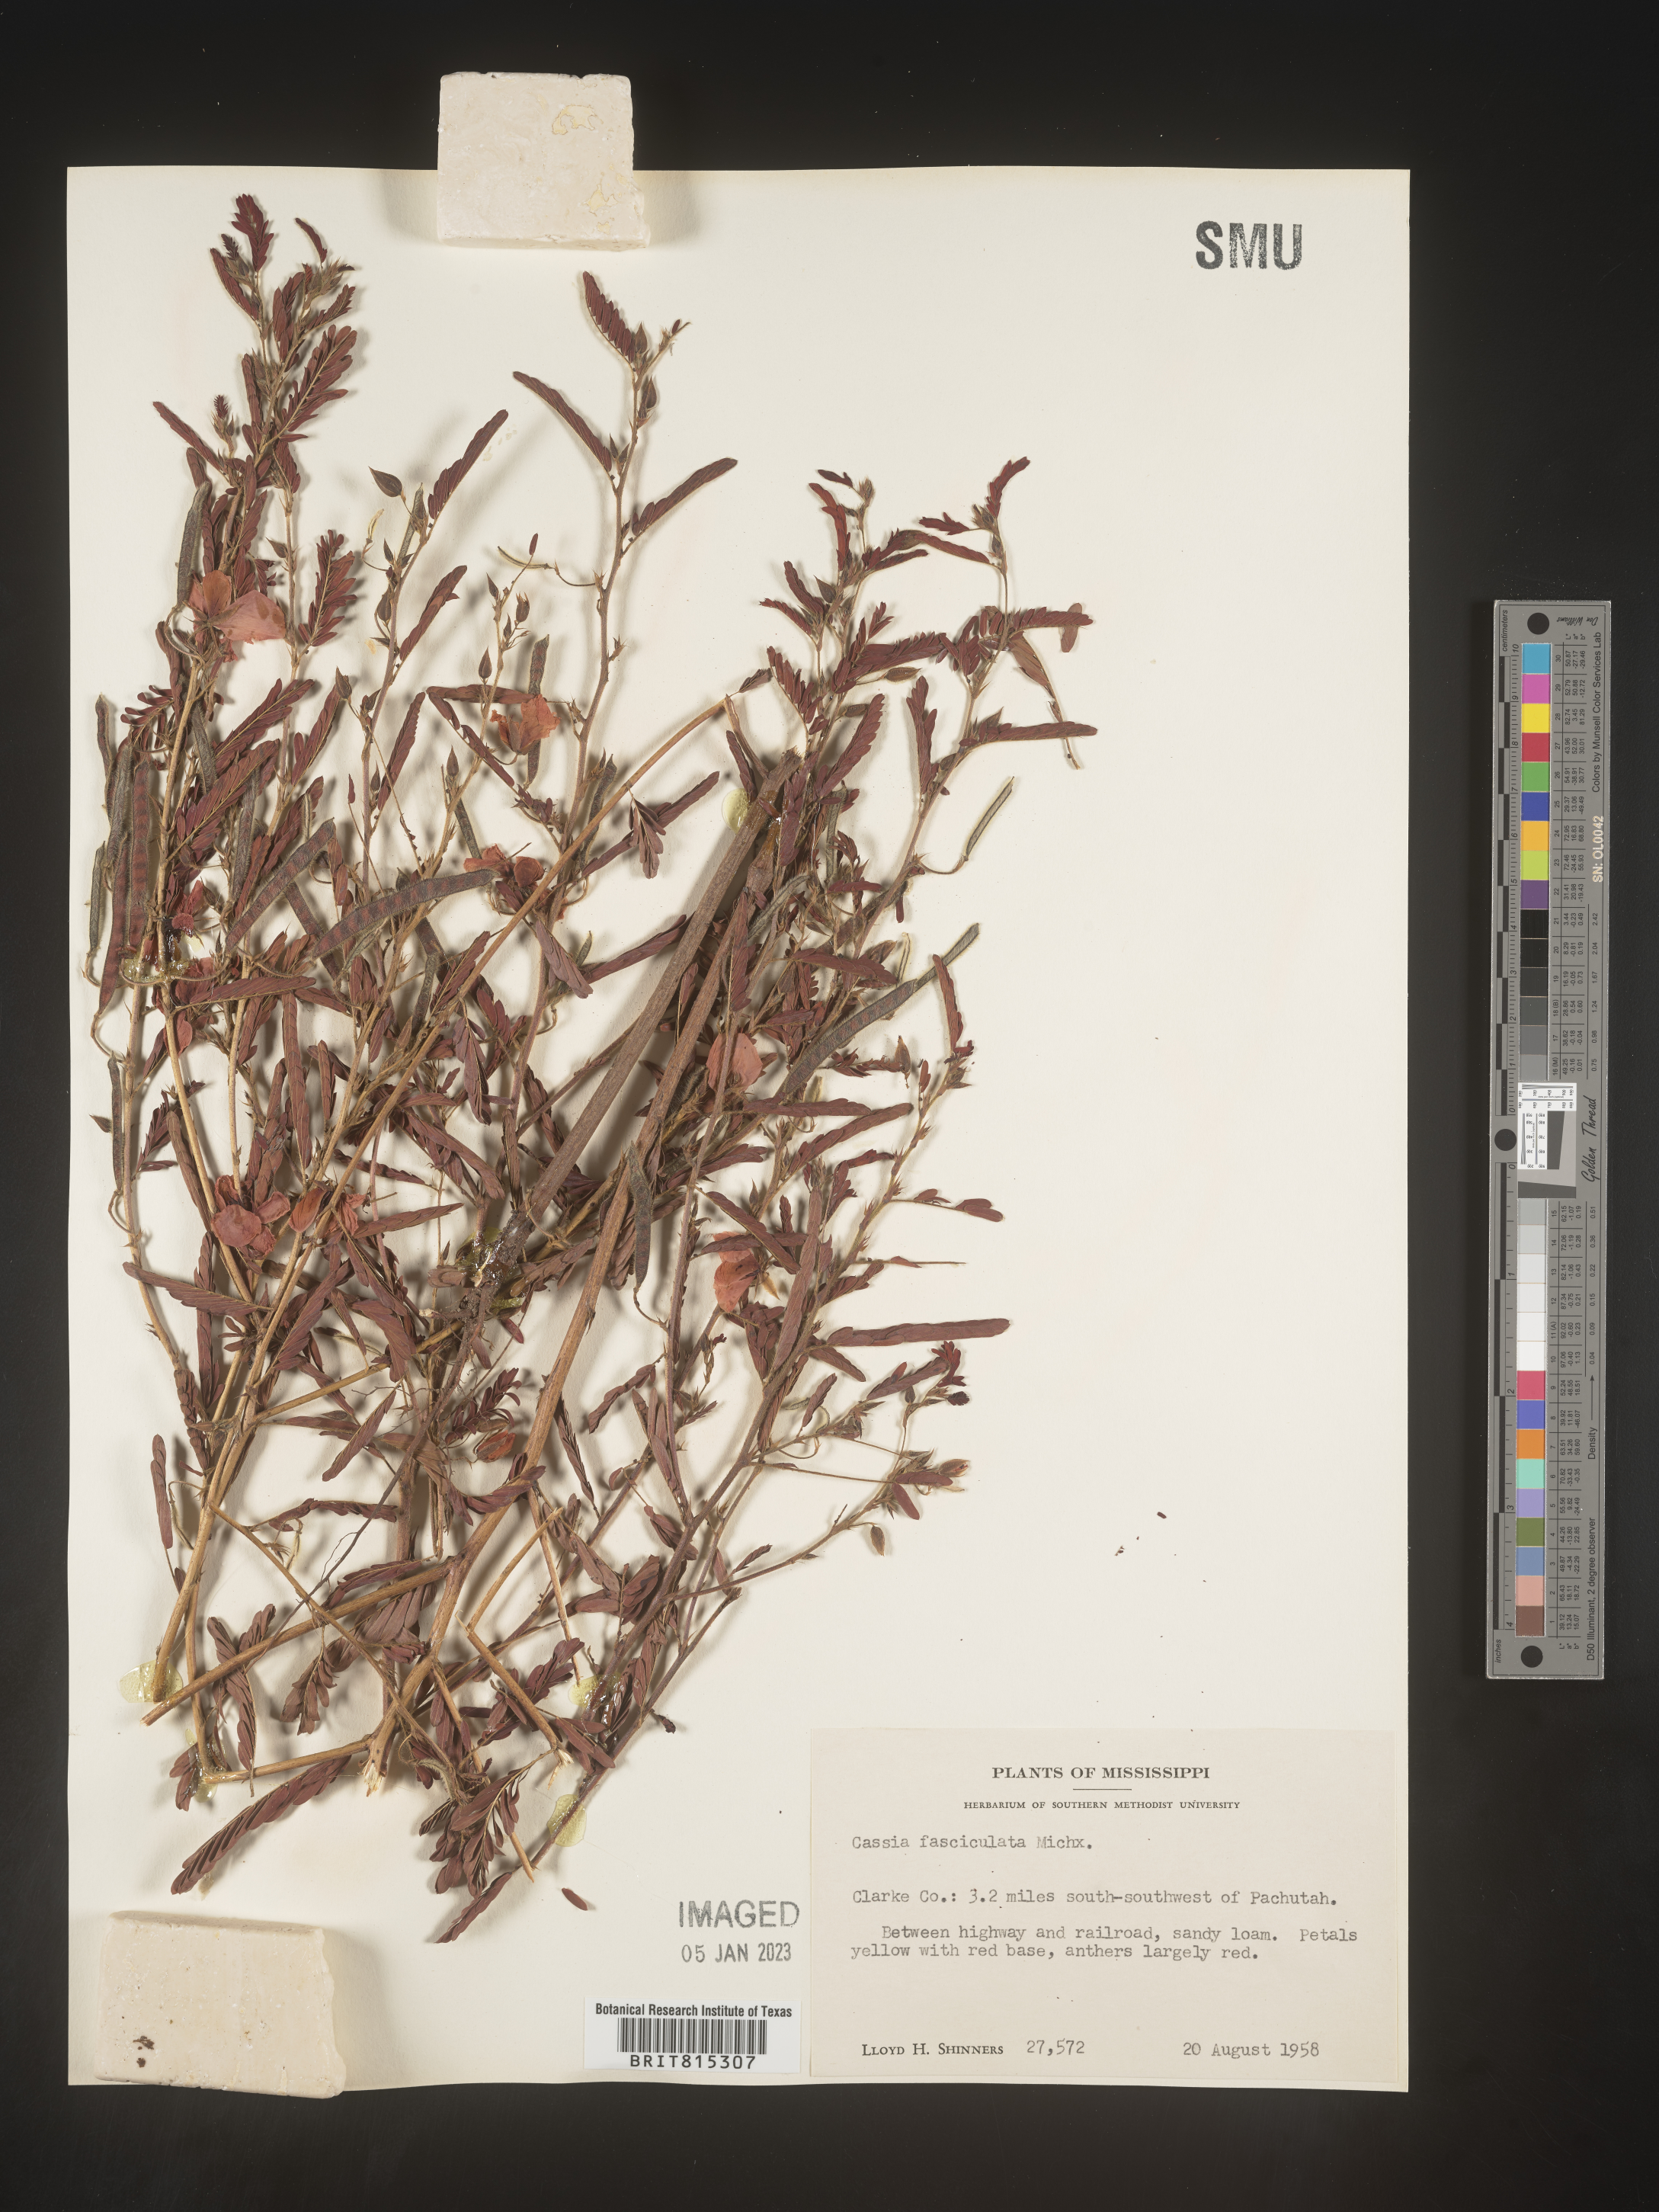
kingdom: Plantae
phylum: Tracheophyta
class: Magnoliopsida
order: Fabales
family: Fabaceae
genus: Chamaecrista
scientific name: Chamaecrista fasciculata
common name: Golden cassia
